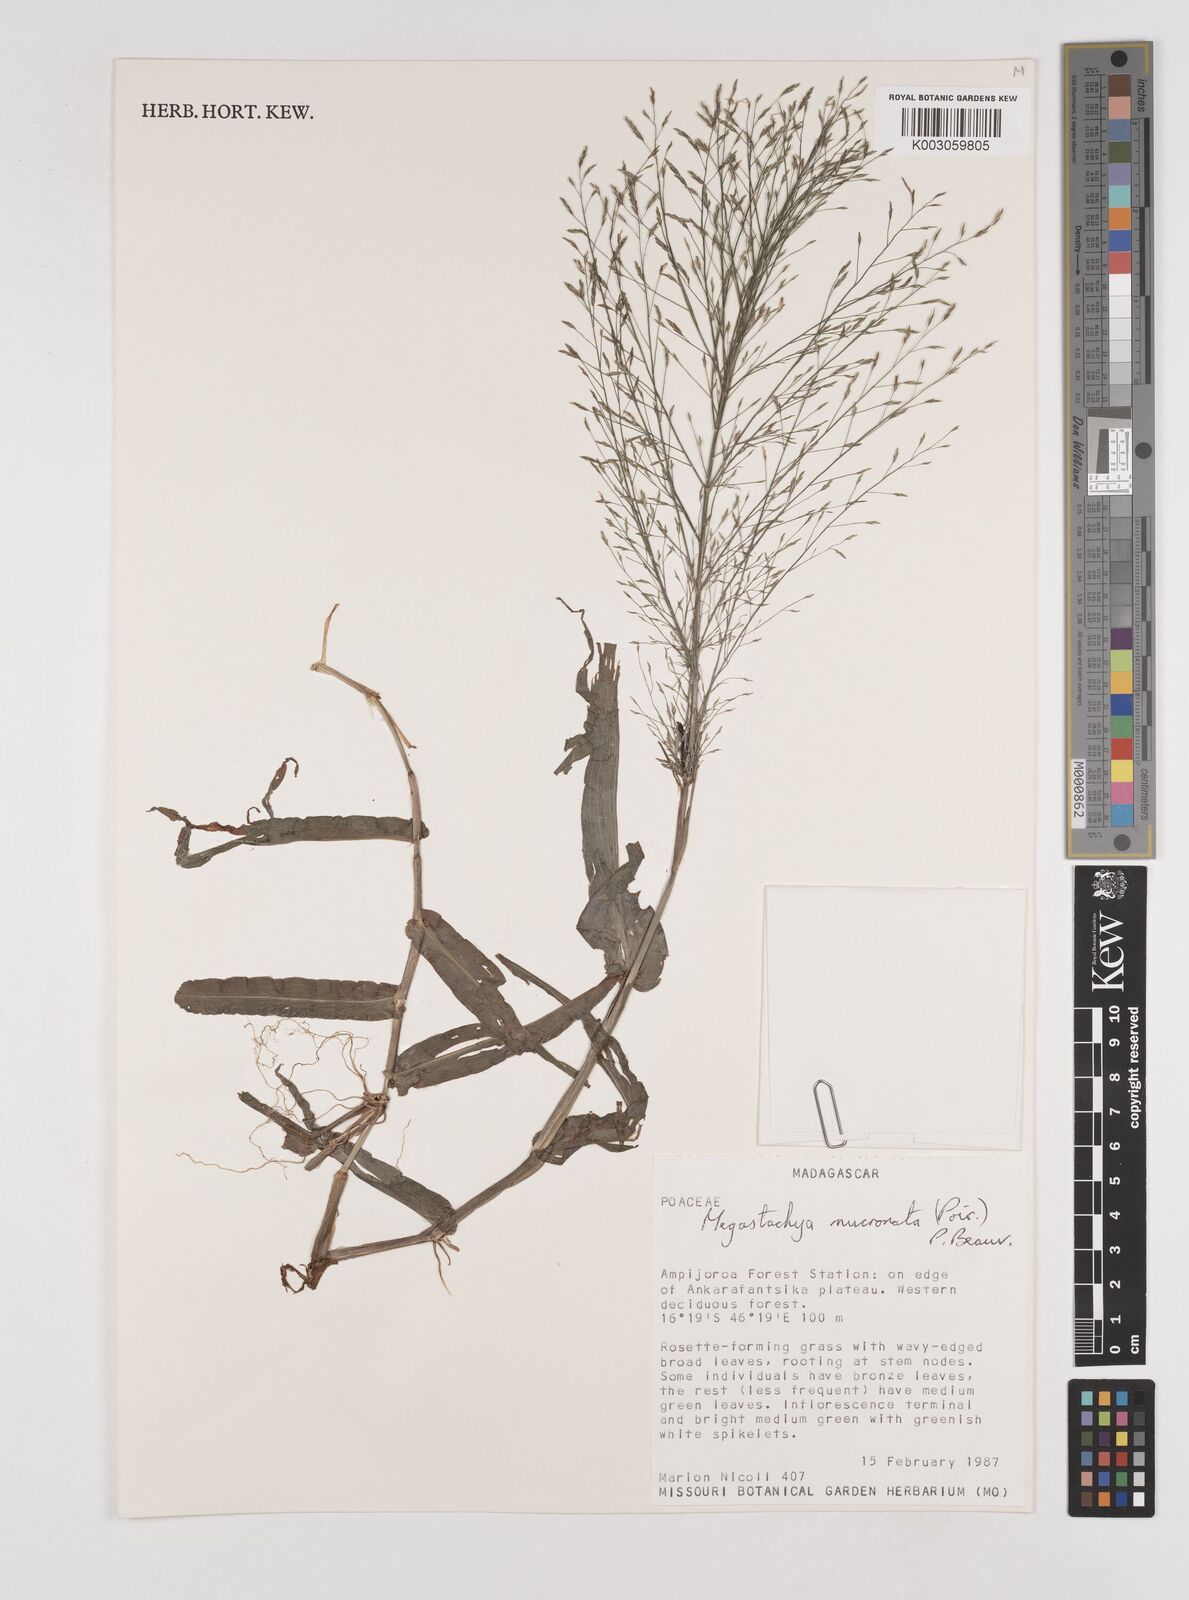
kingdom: Plantae
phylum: Tracheophyta
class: Liliopsida
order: Poales
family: Poaceae
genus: Megastachya
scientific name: Megastachya mucronata
